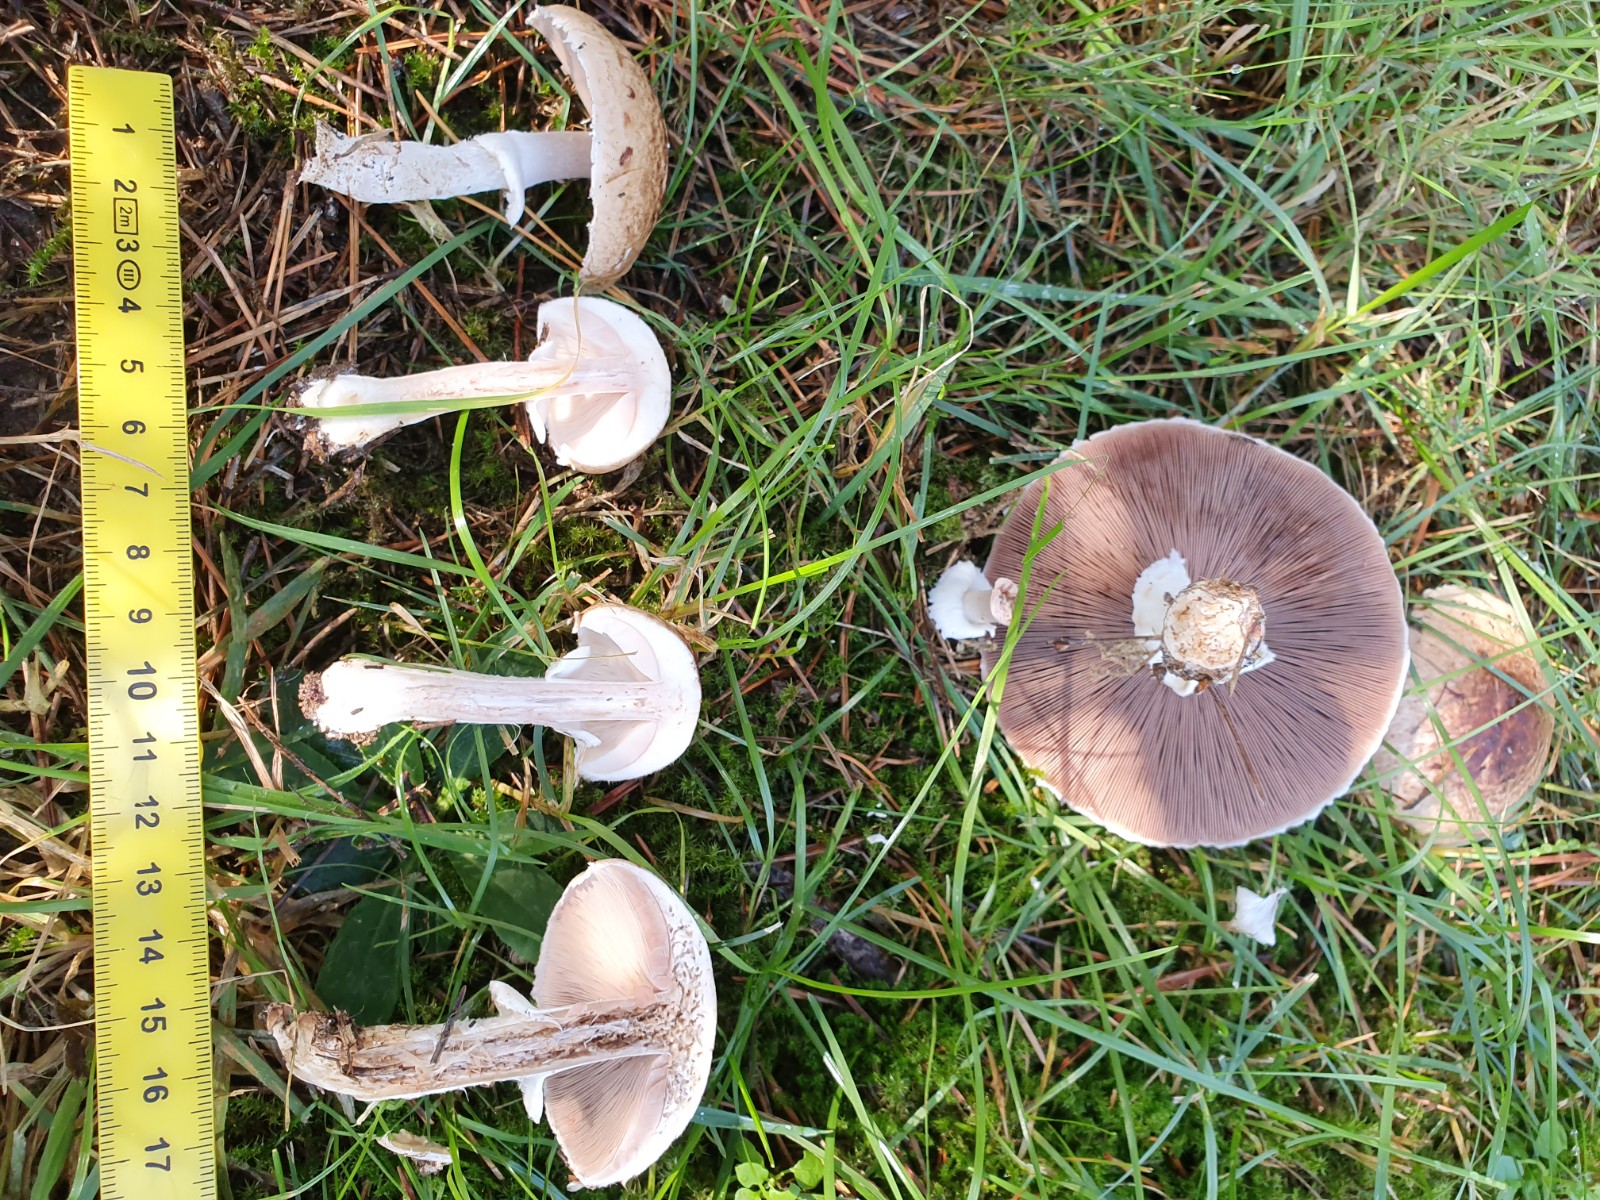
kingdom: Fungi
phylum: Basidiomycota
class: Agaricomycetes
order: Agaricales
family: Agaricaceae
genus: Agaricus
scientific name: Agaricus impudicus
